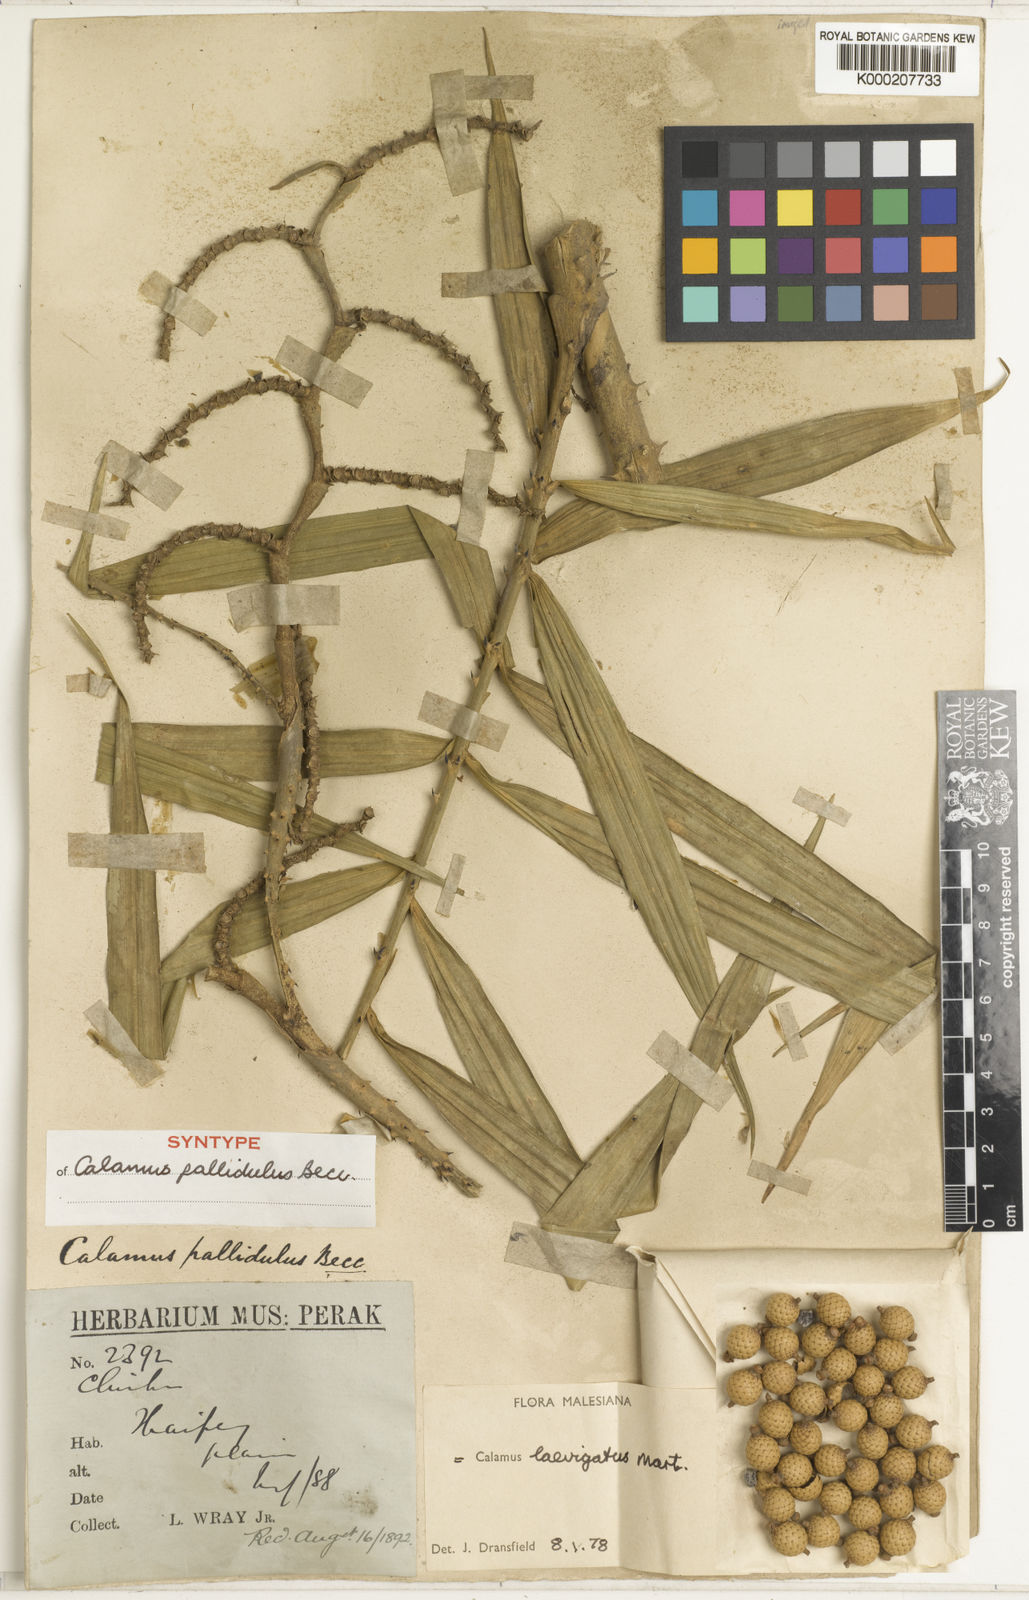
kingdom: Plantae
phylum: Tracheophyta
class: Liliopsida
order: Arecales
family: Arecaceae
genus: Calamus
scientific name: Calamus
